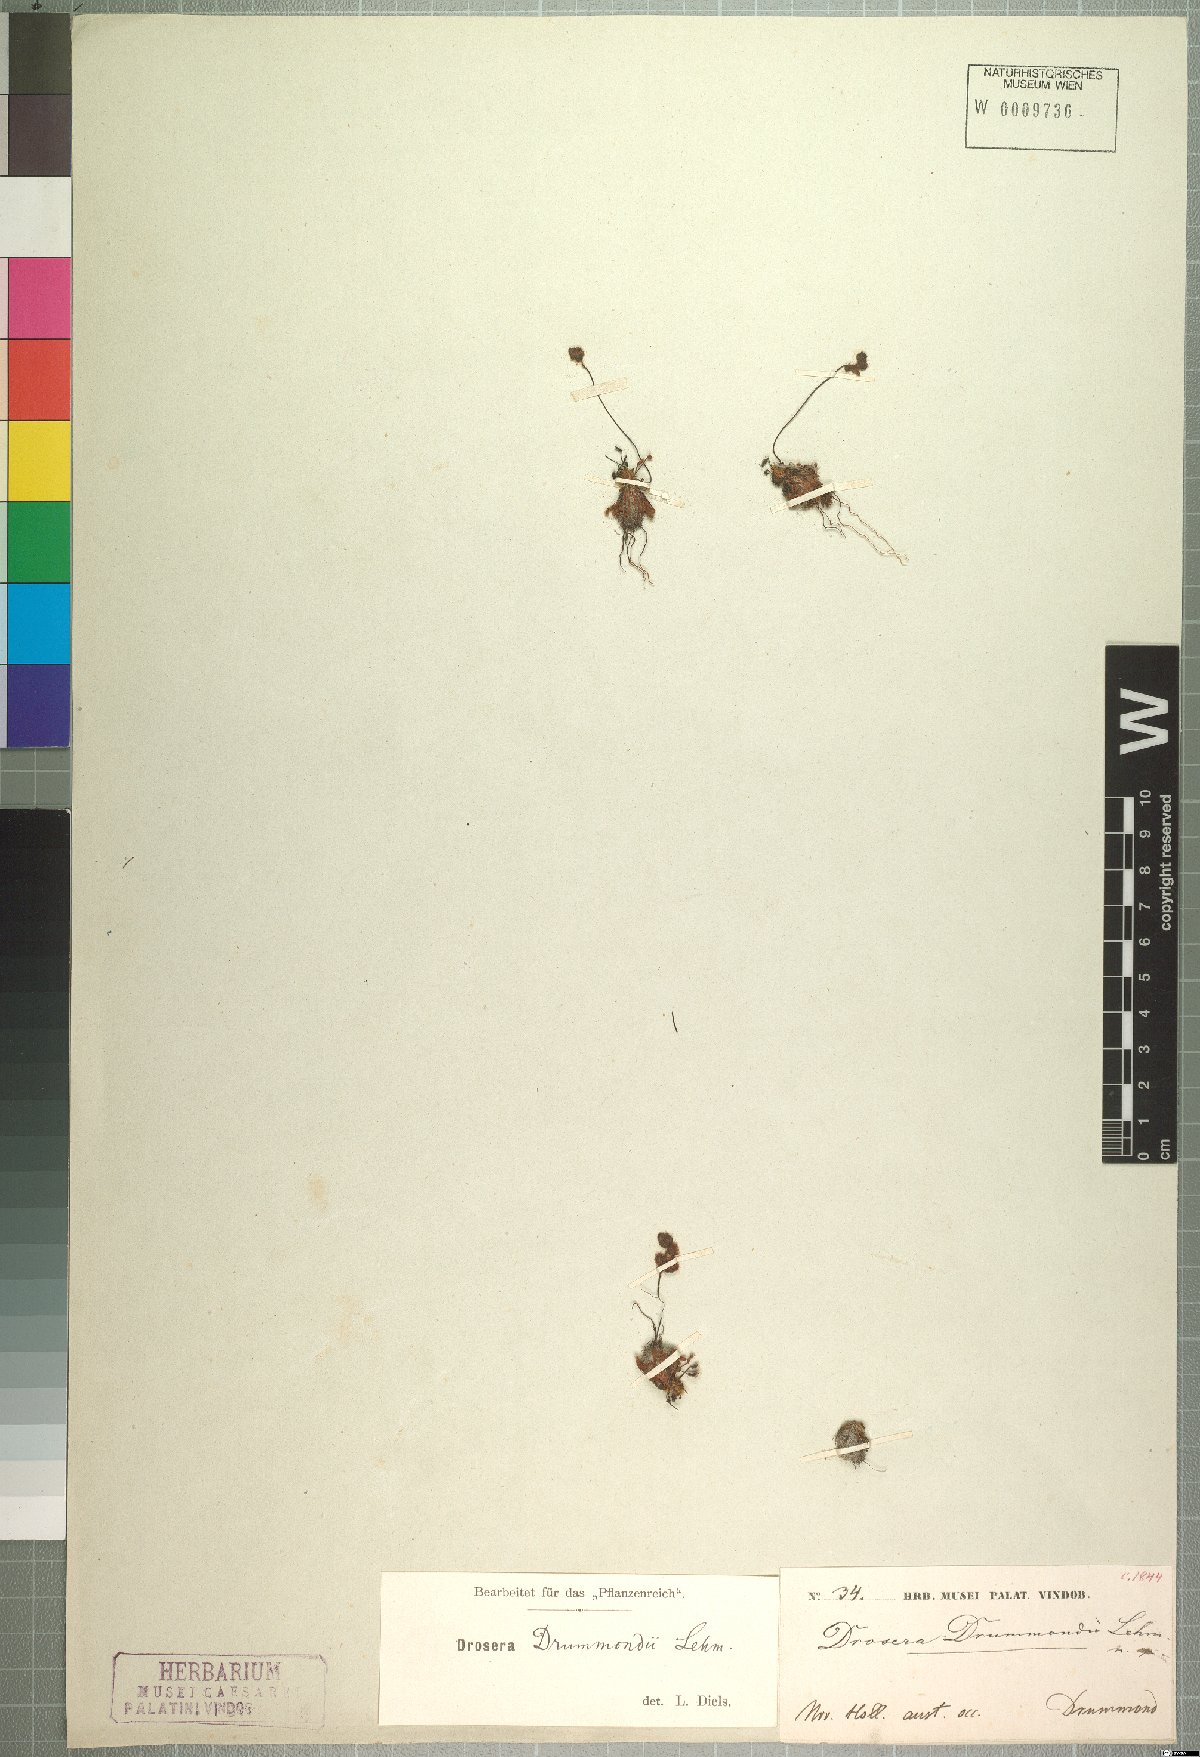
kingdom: Plantae
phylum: Tracheophyta
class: Magnoliopsida
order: Caryophyllales
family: Droseraceae
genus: Drosera
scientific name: Drosera barbigera
